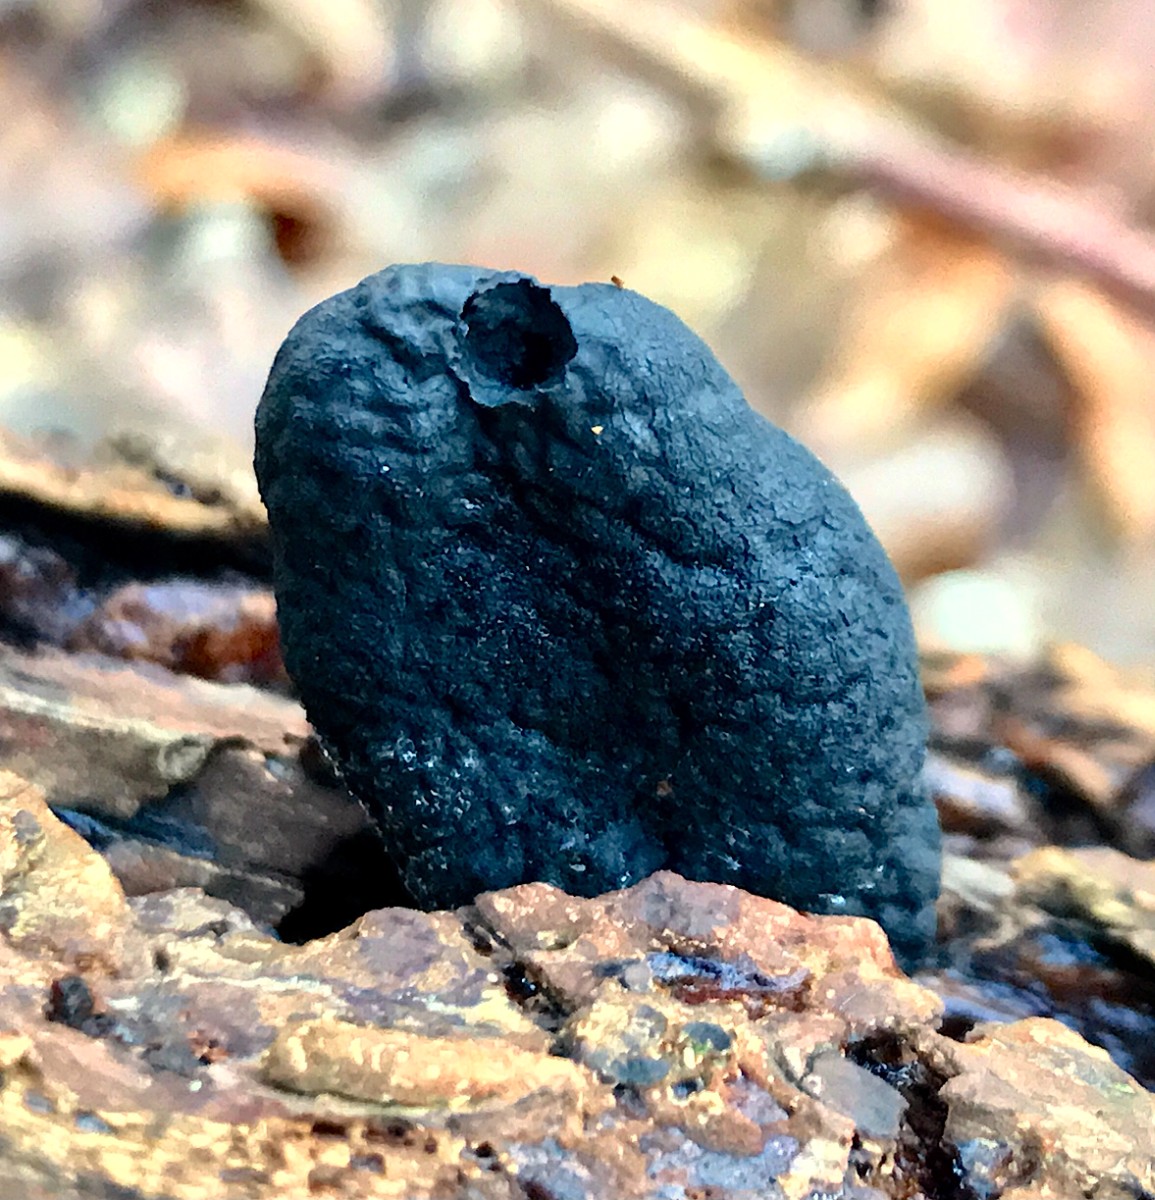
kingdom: Fungi
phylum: Ascomycota
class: Sordariomycetes
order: Xylariales
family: Xylariaceae
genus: Xylaria
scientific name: Xylaria polymorpha
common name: kølle-stødsvamp
